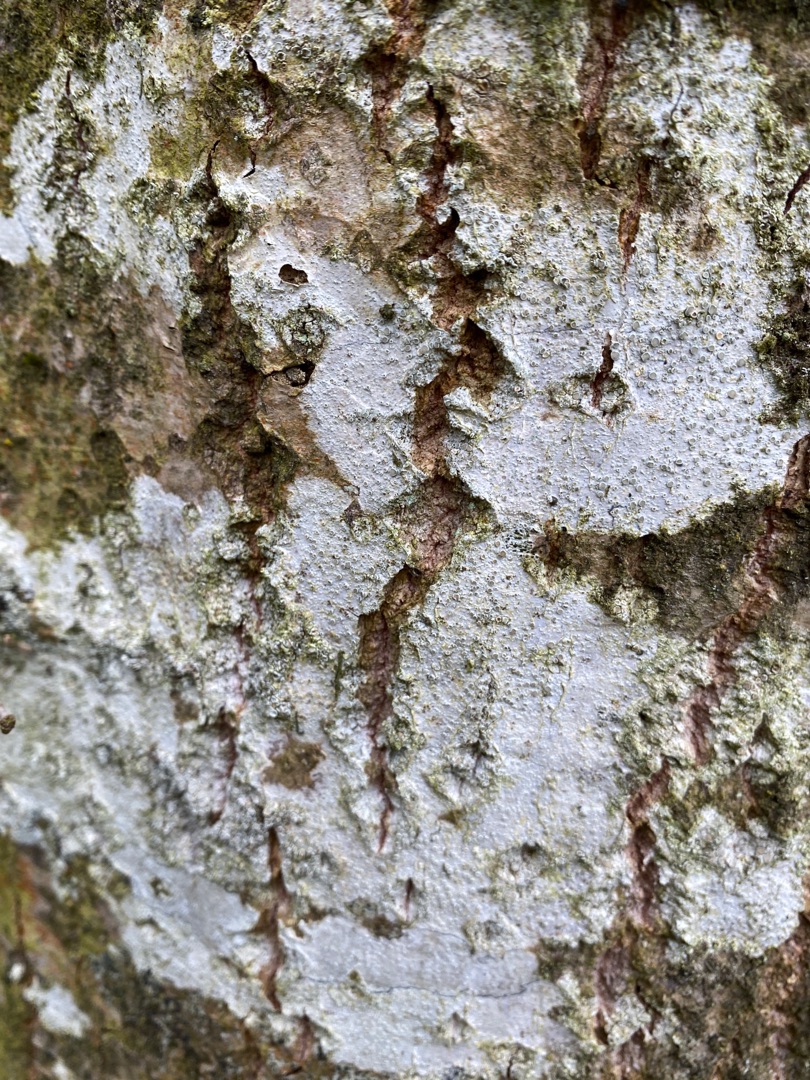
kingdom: Fungi
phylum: Ascomycota
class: Lecanoromycetes
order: Lecanorales
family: Lecanoraceae
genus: Lecanora
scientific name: Lecanora chlarotera
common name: Brun kantskivelav
